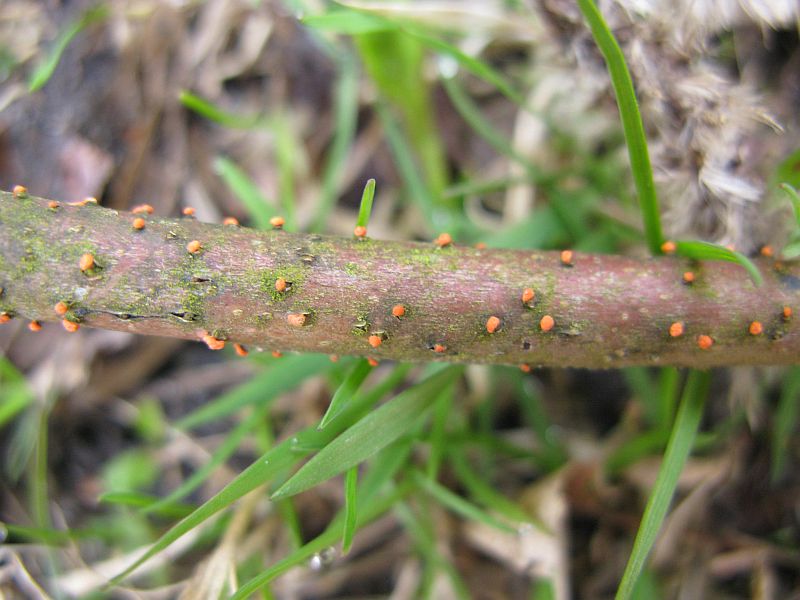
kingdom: Fungi
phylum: Ascomycota
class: Sordariomycetes
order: Hypocreales
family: Nectriaceae
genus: Nectria
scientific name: Nectria cinnabarina
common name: almindelig cinnobersvamp
